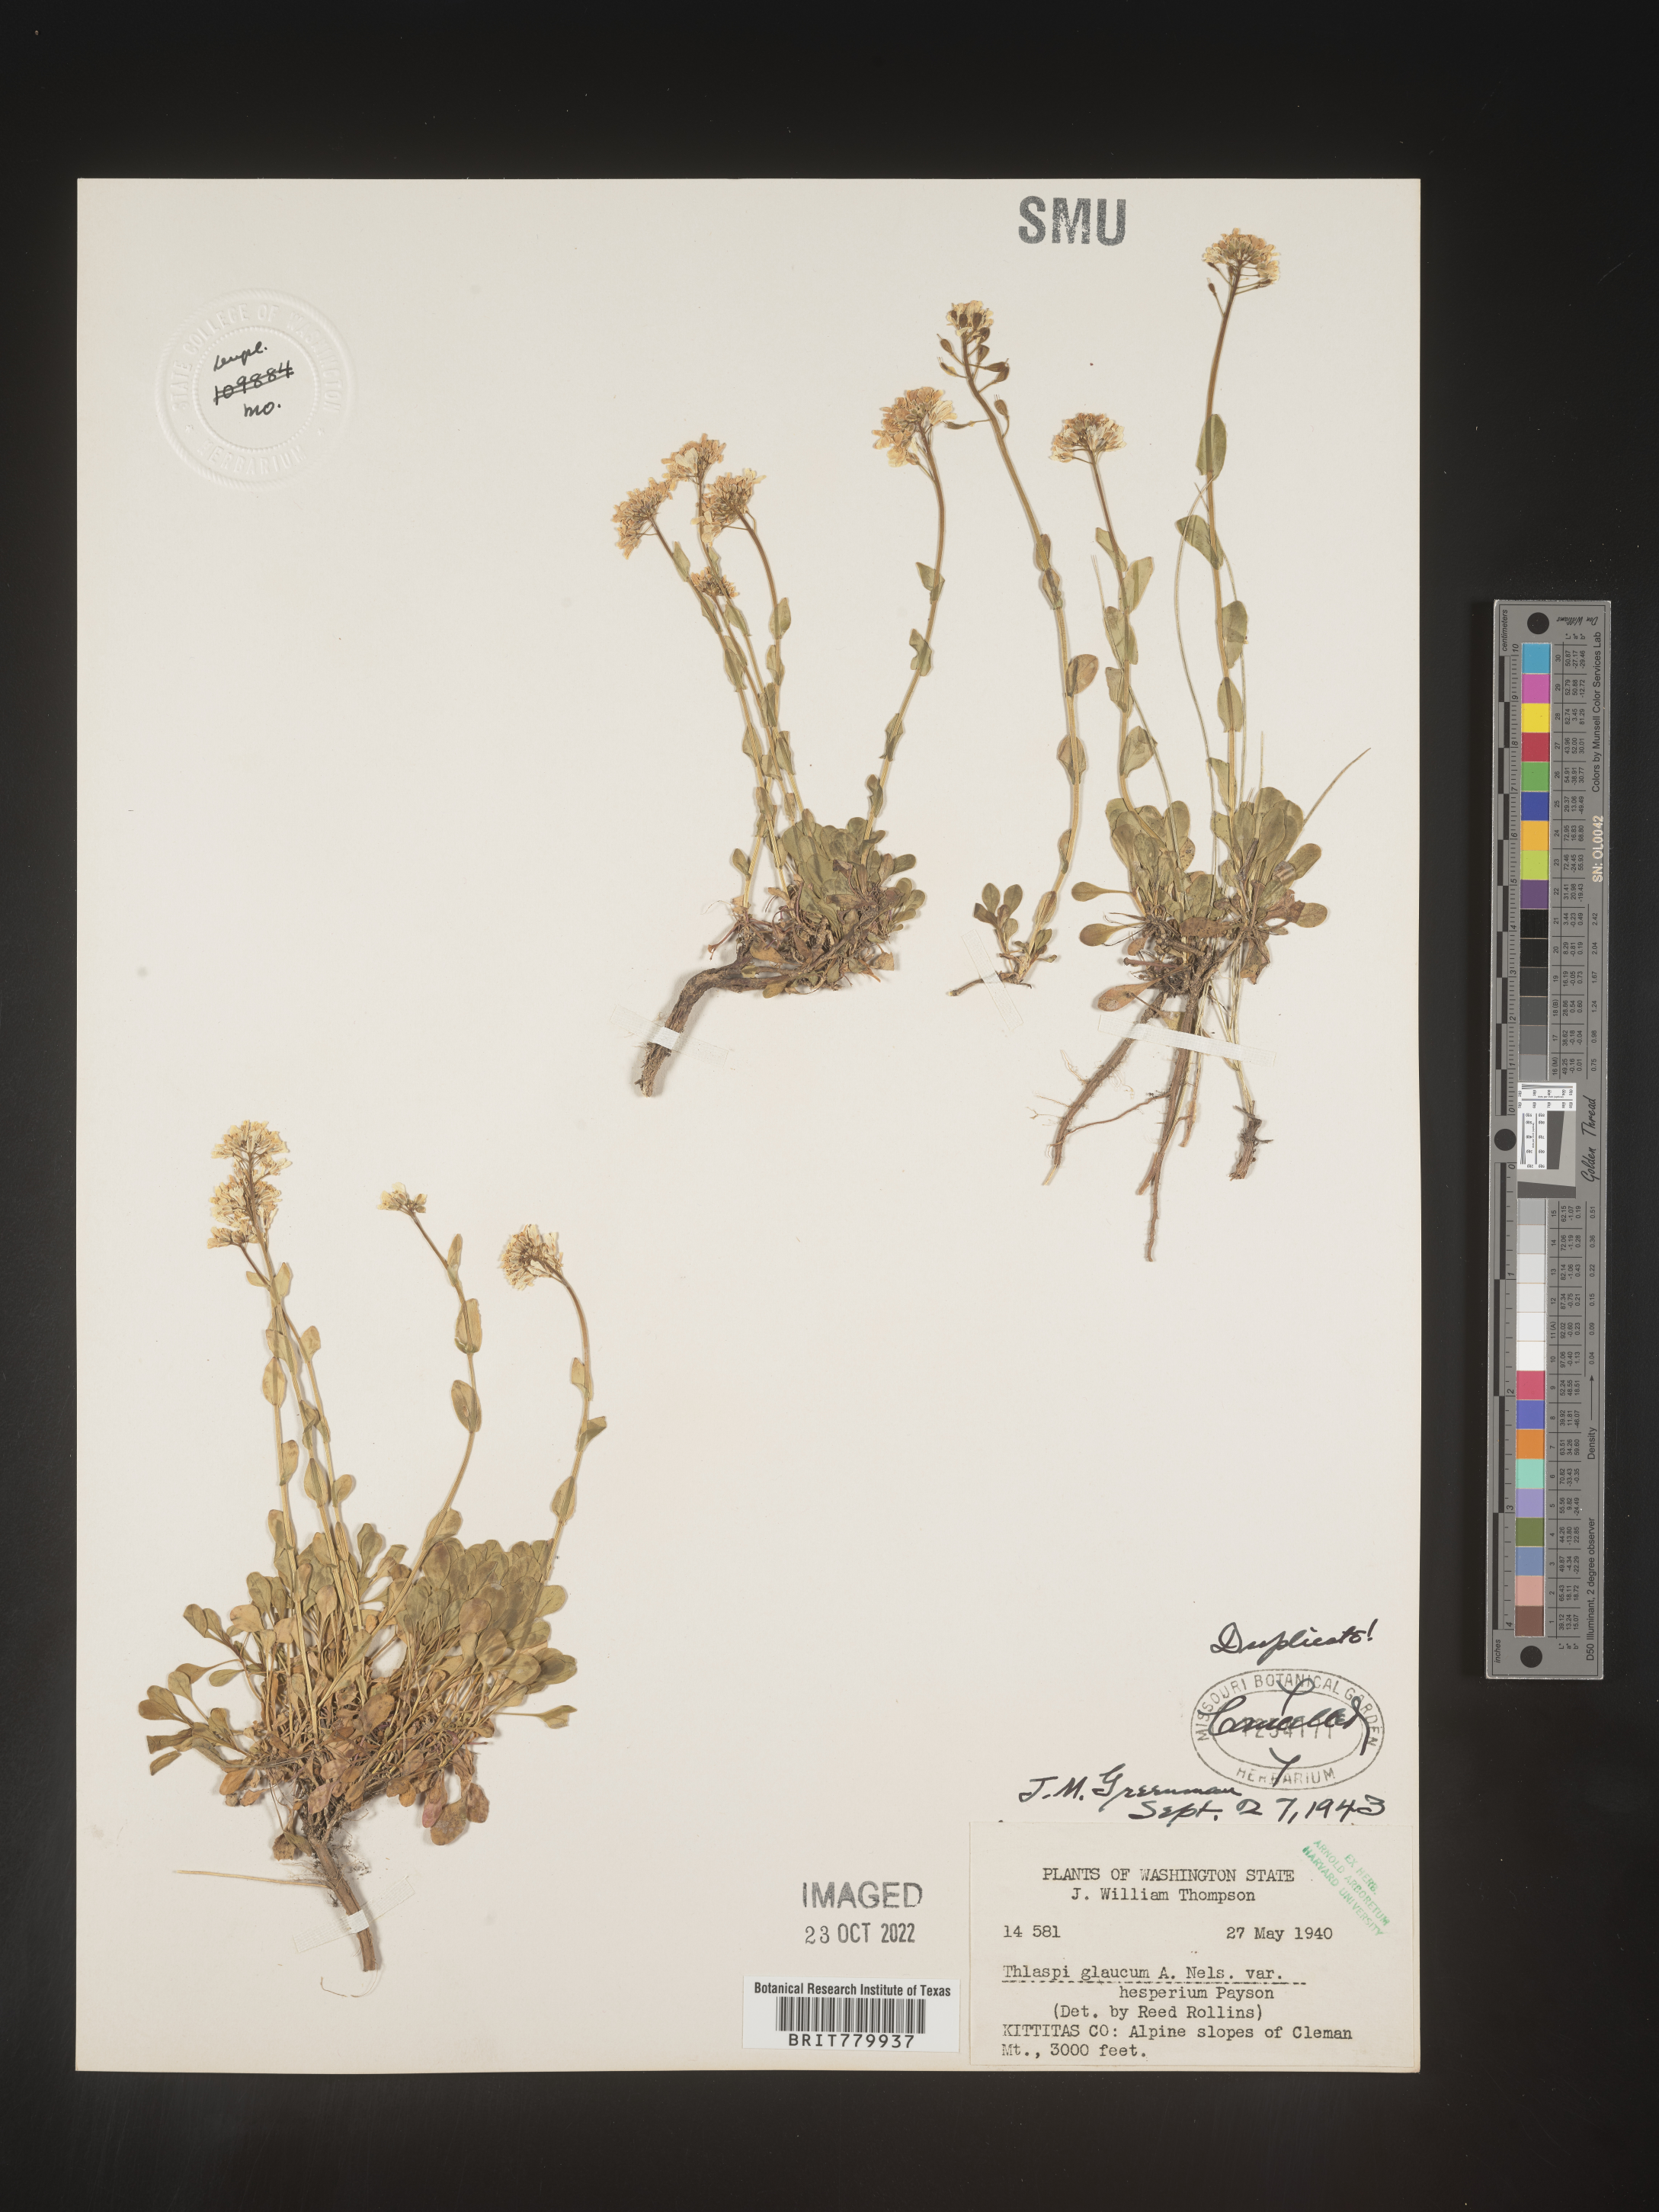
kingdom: Plantae
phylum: Tracheophyta
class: Magnoliopsida
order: Brassicales
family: Brassicaceae
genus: Thlaspi
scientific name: Thlaspi
